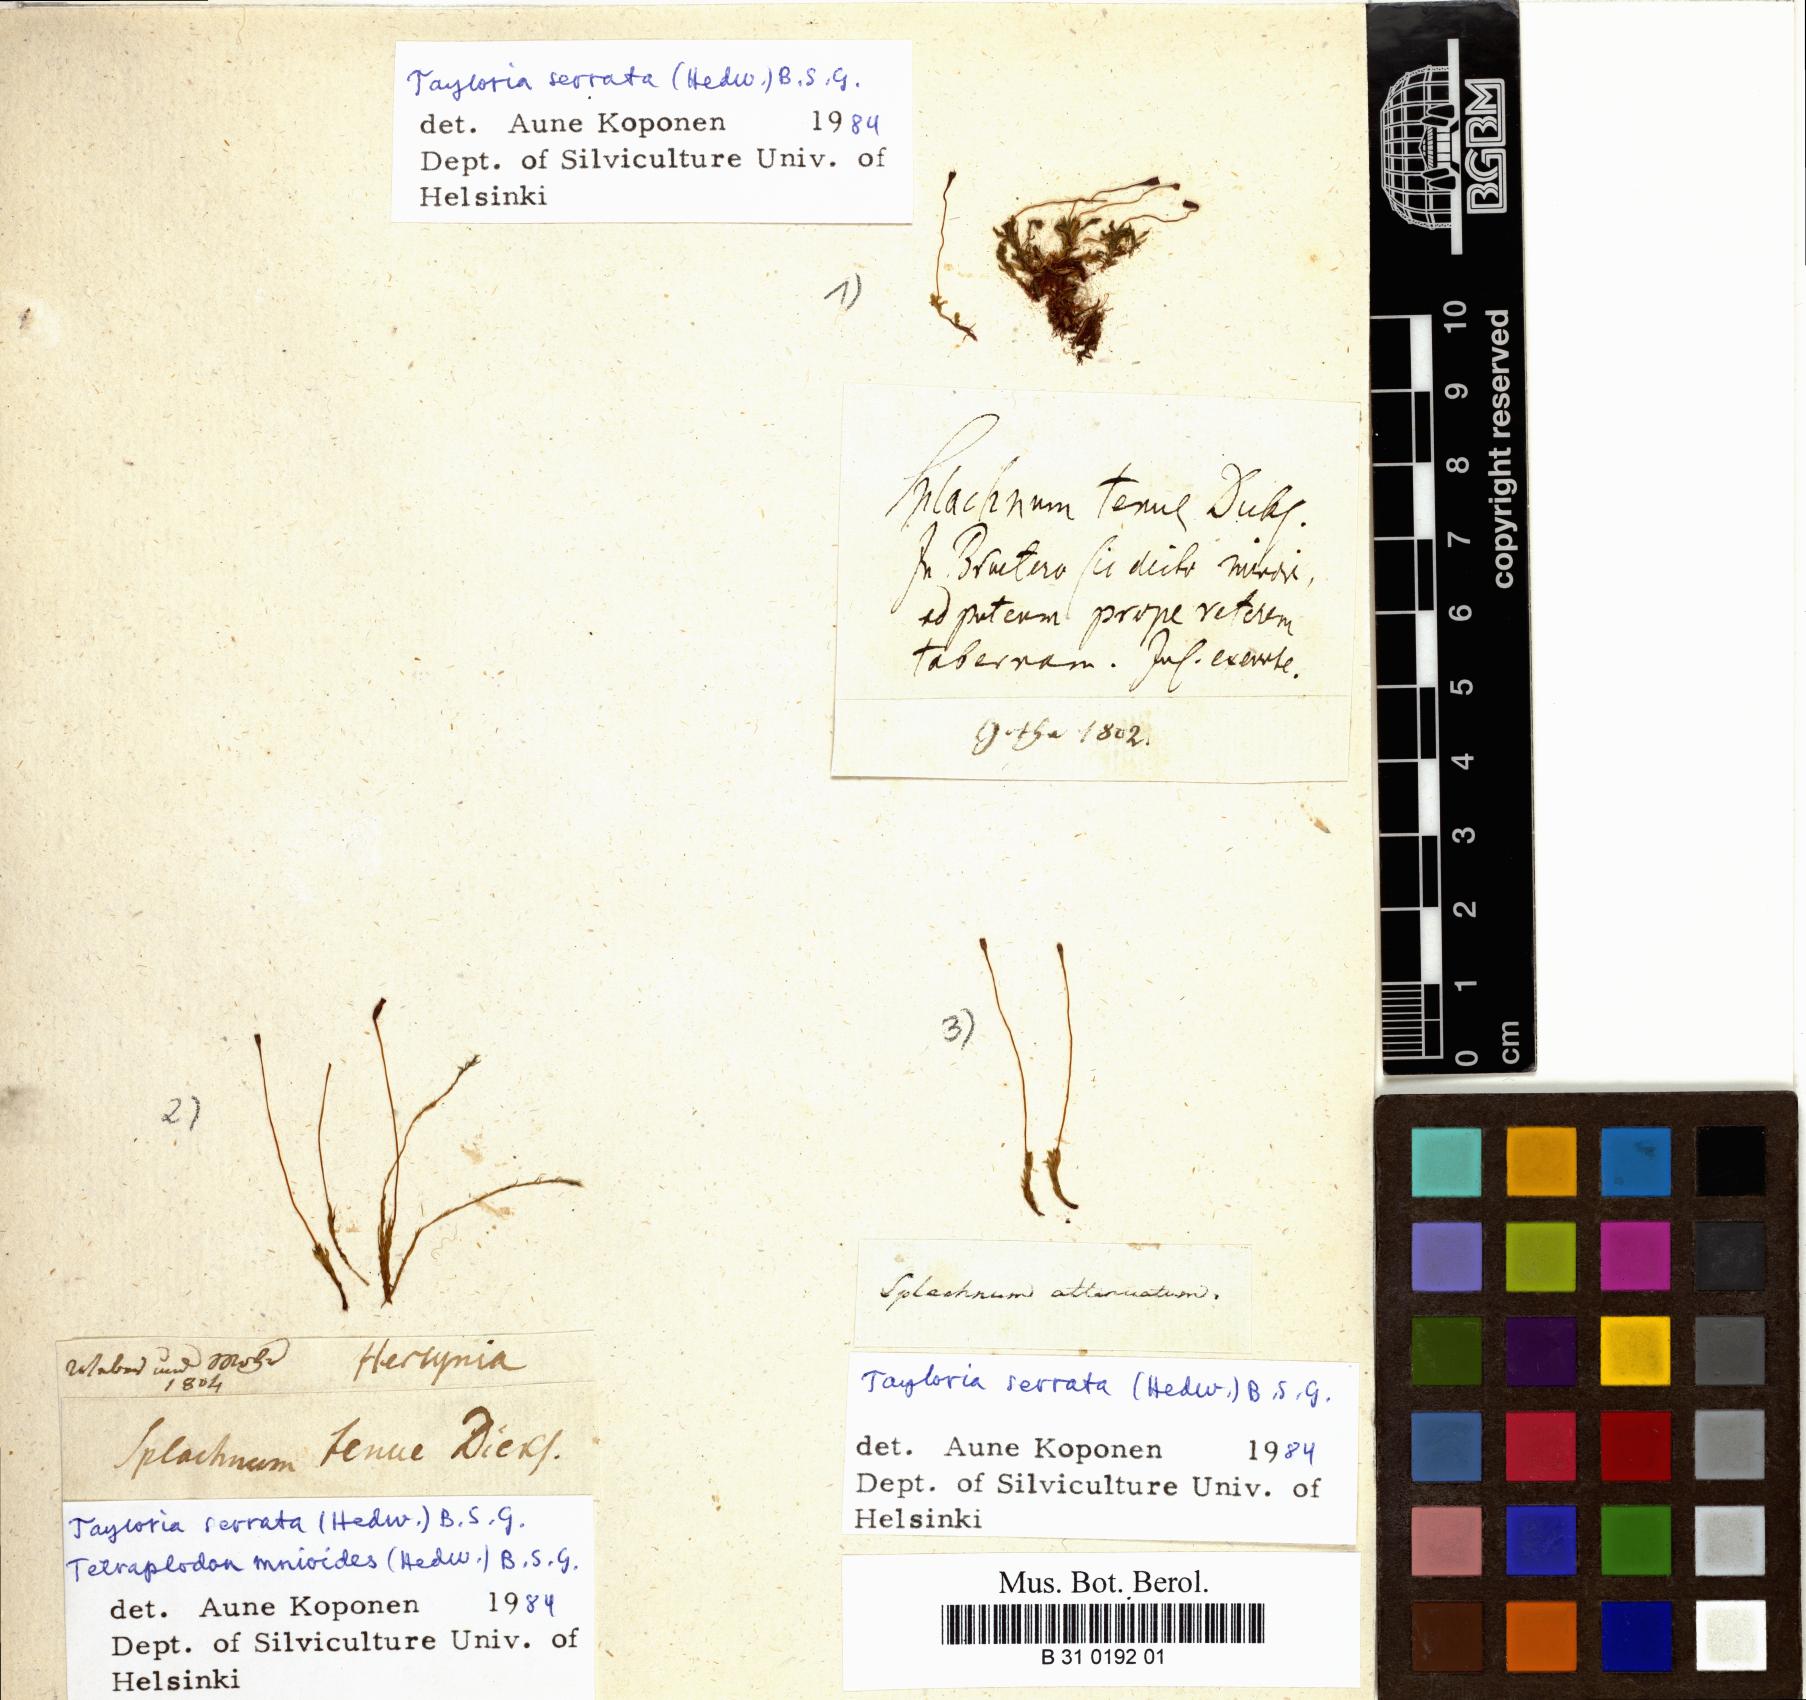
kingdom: Plantae
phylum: Bryophyta
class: Bryopsida
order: Splachnales
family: Splachnaceae
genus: Splachnum
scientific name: Splachnum tenue
